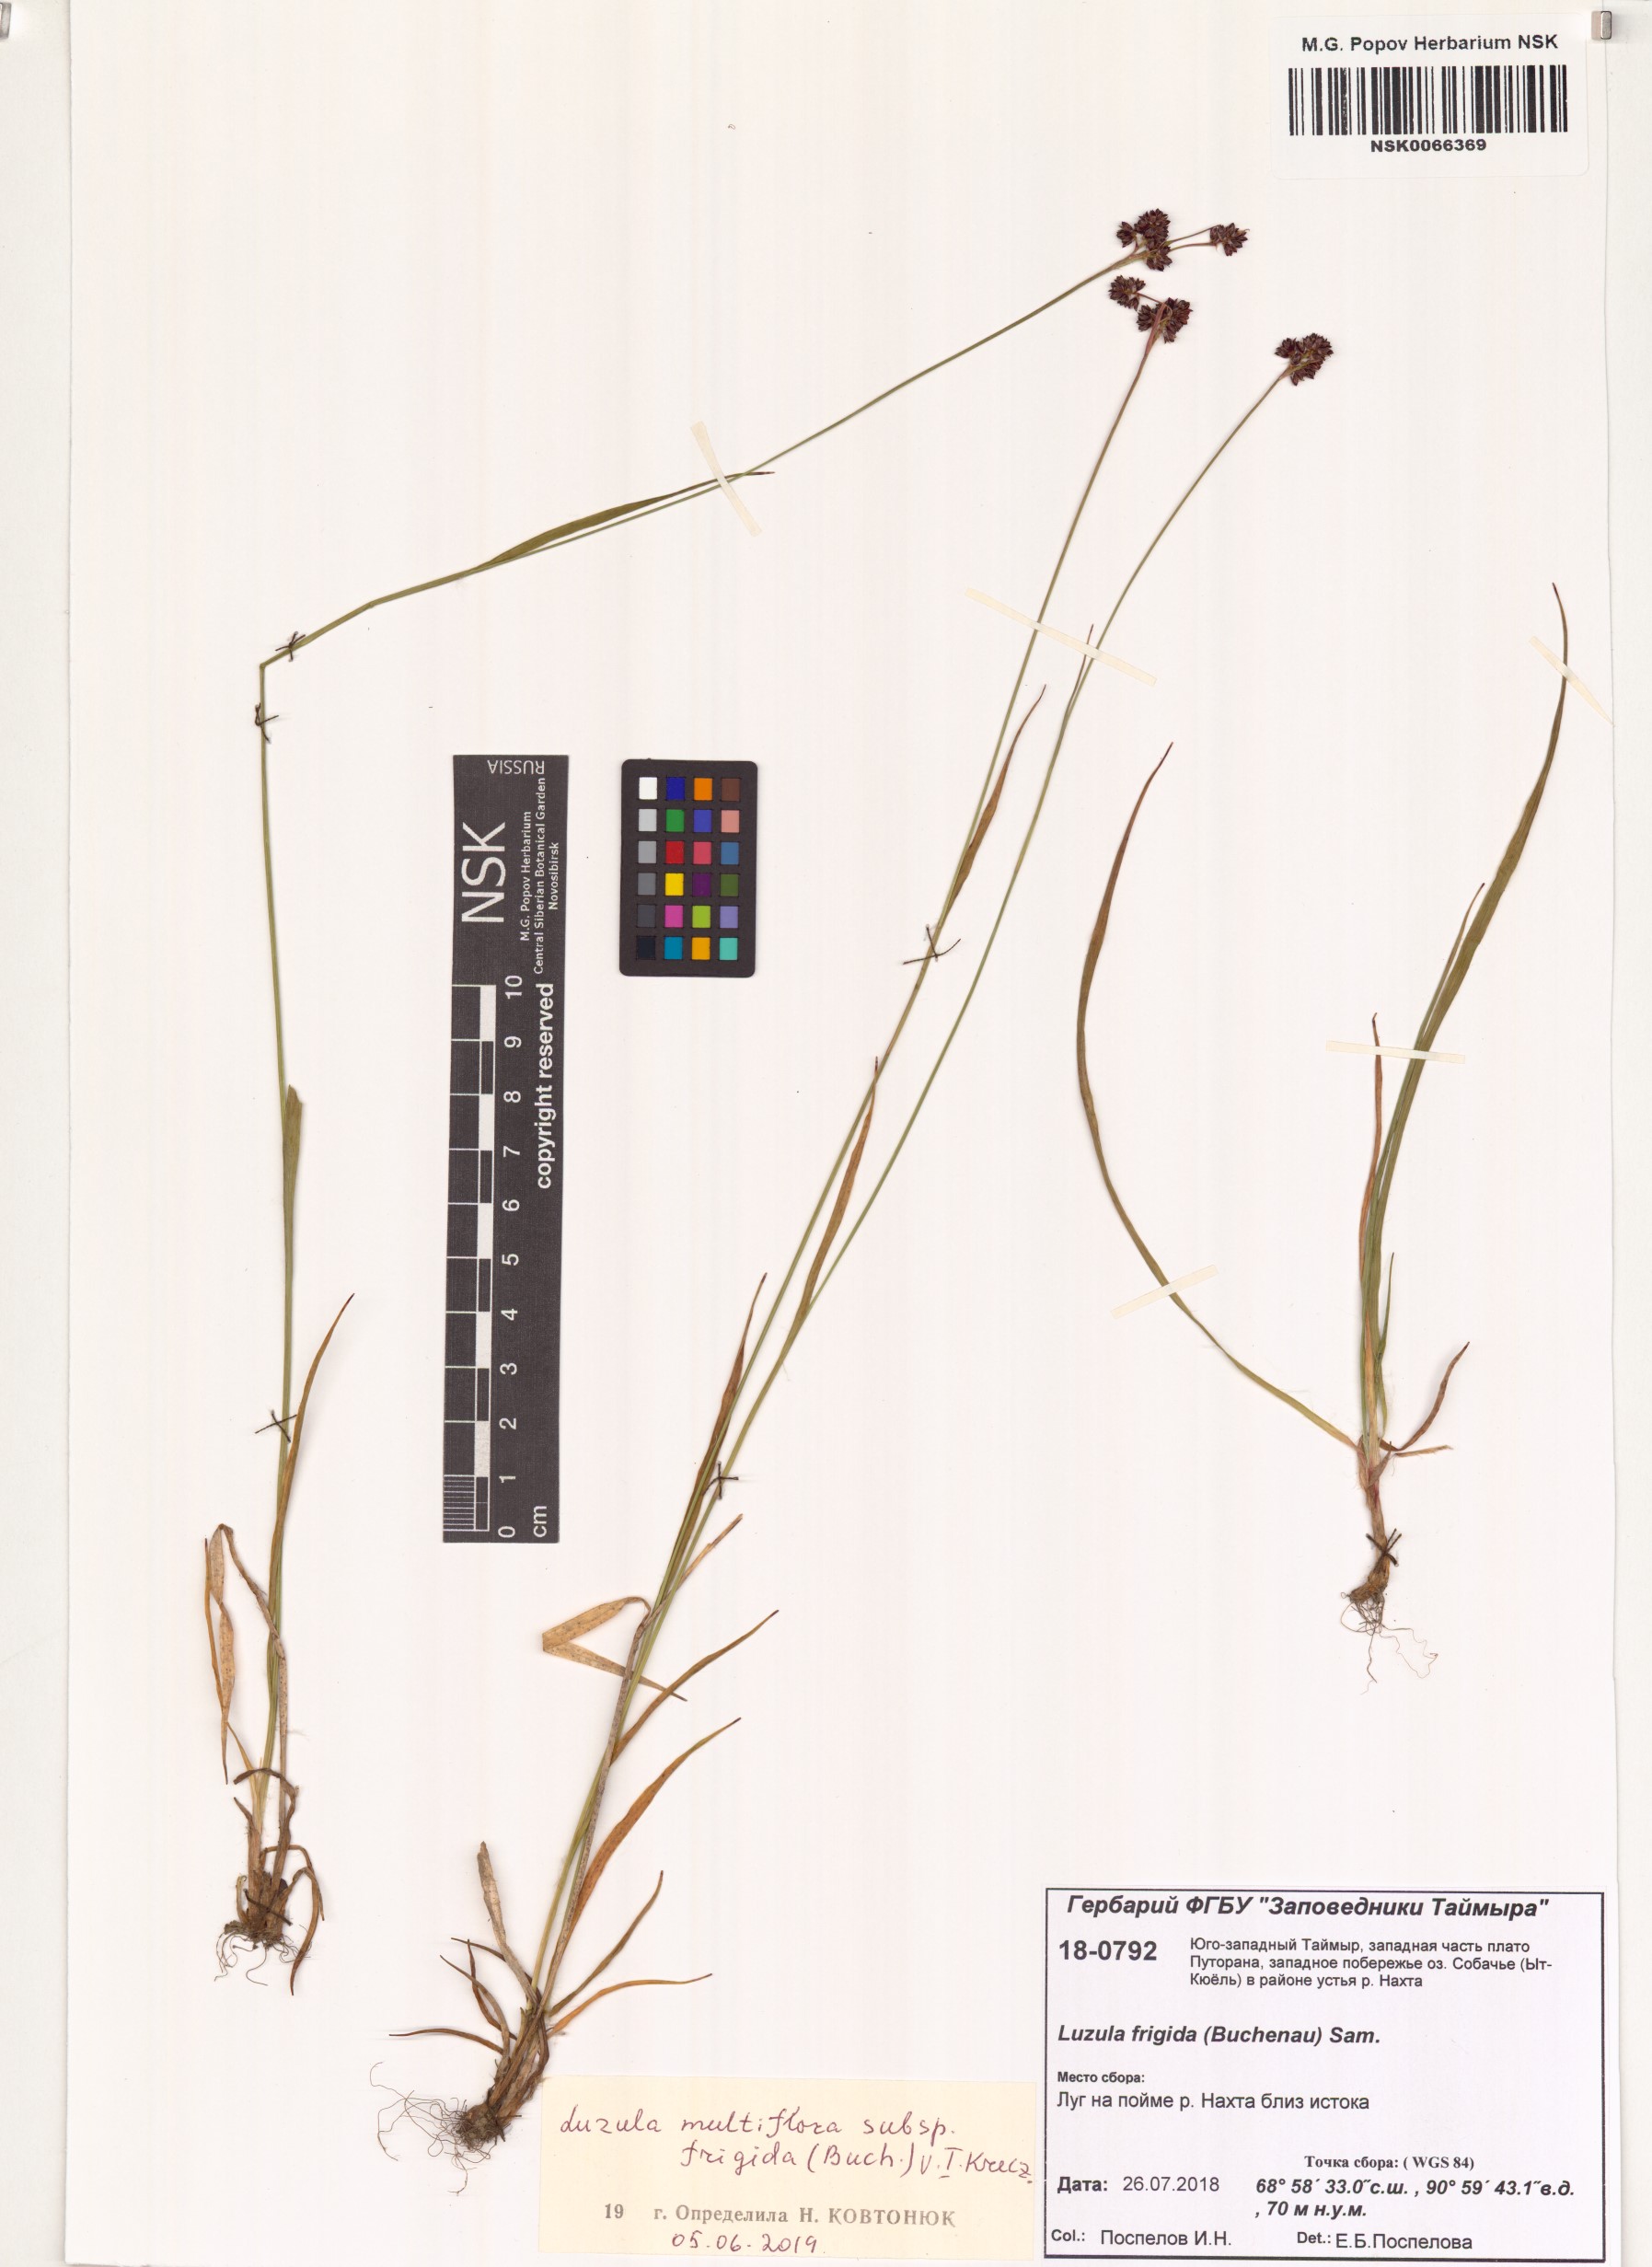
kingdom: Plantae
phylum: Tracheophyta
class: Liliopsida
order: Poales
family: Juncaceae
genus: Luzula
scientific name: Luzula multiflora
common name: Heath wood-rush
